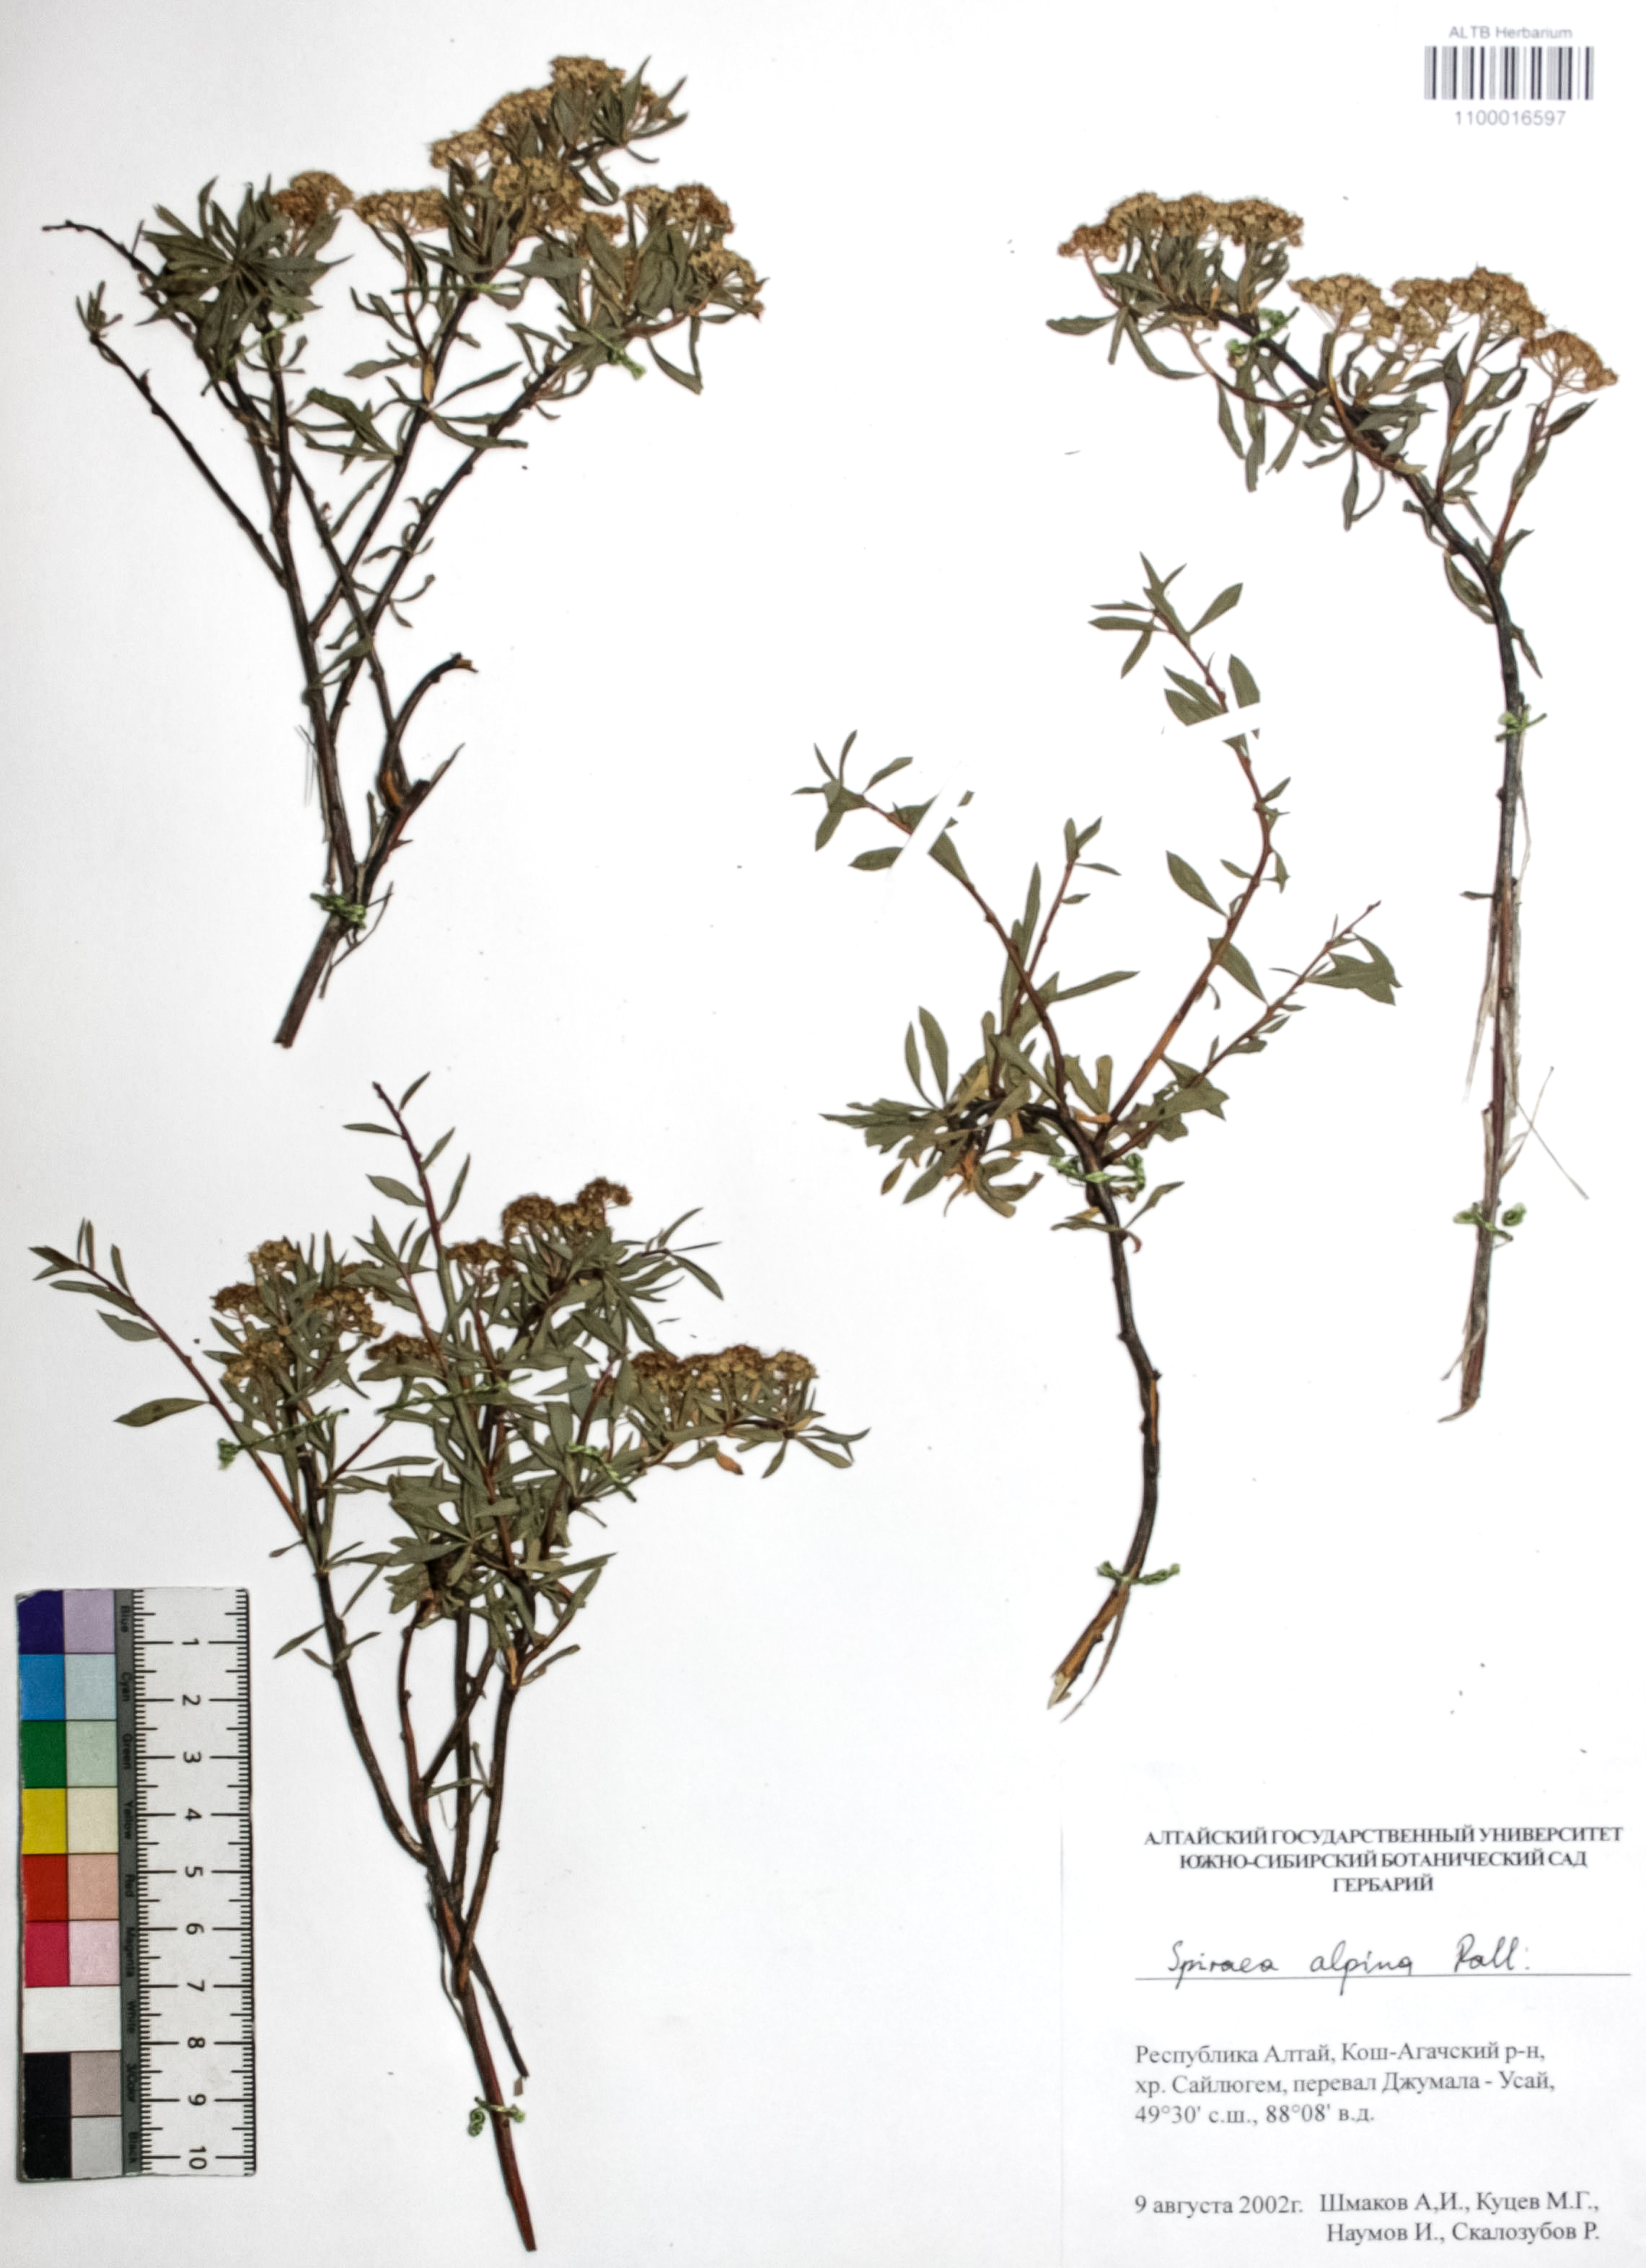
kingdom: Plantae
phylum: Tracheophyta
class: Magnoliopsida
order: Rosales
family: Rosaceae
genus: Spiraea
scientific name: Spiraea alpina
